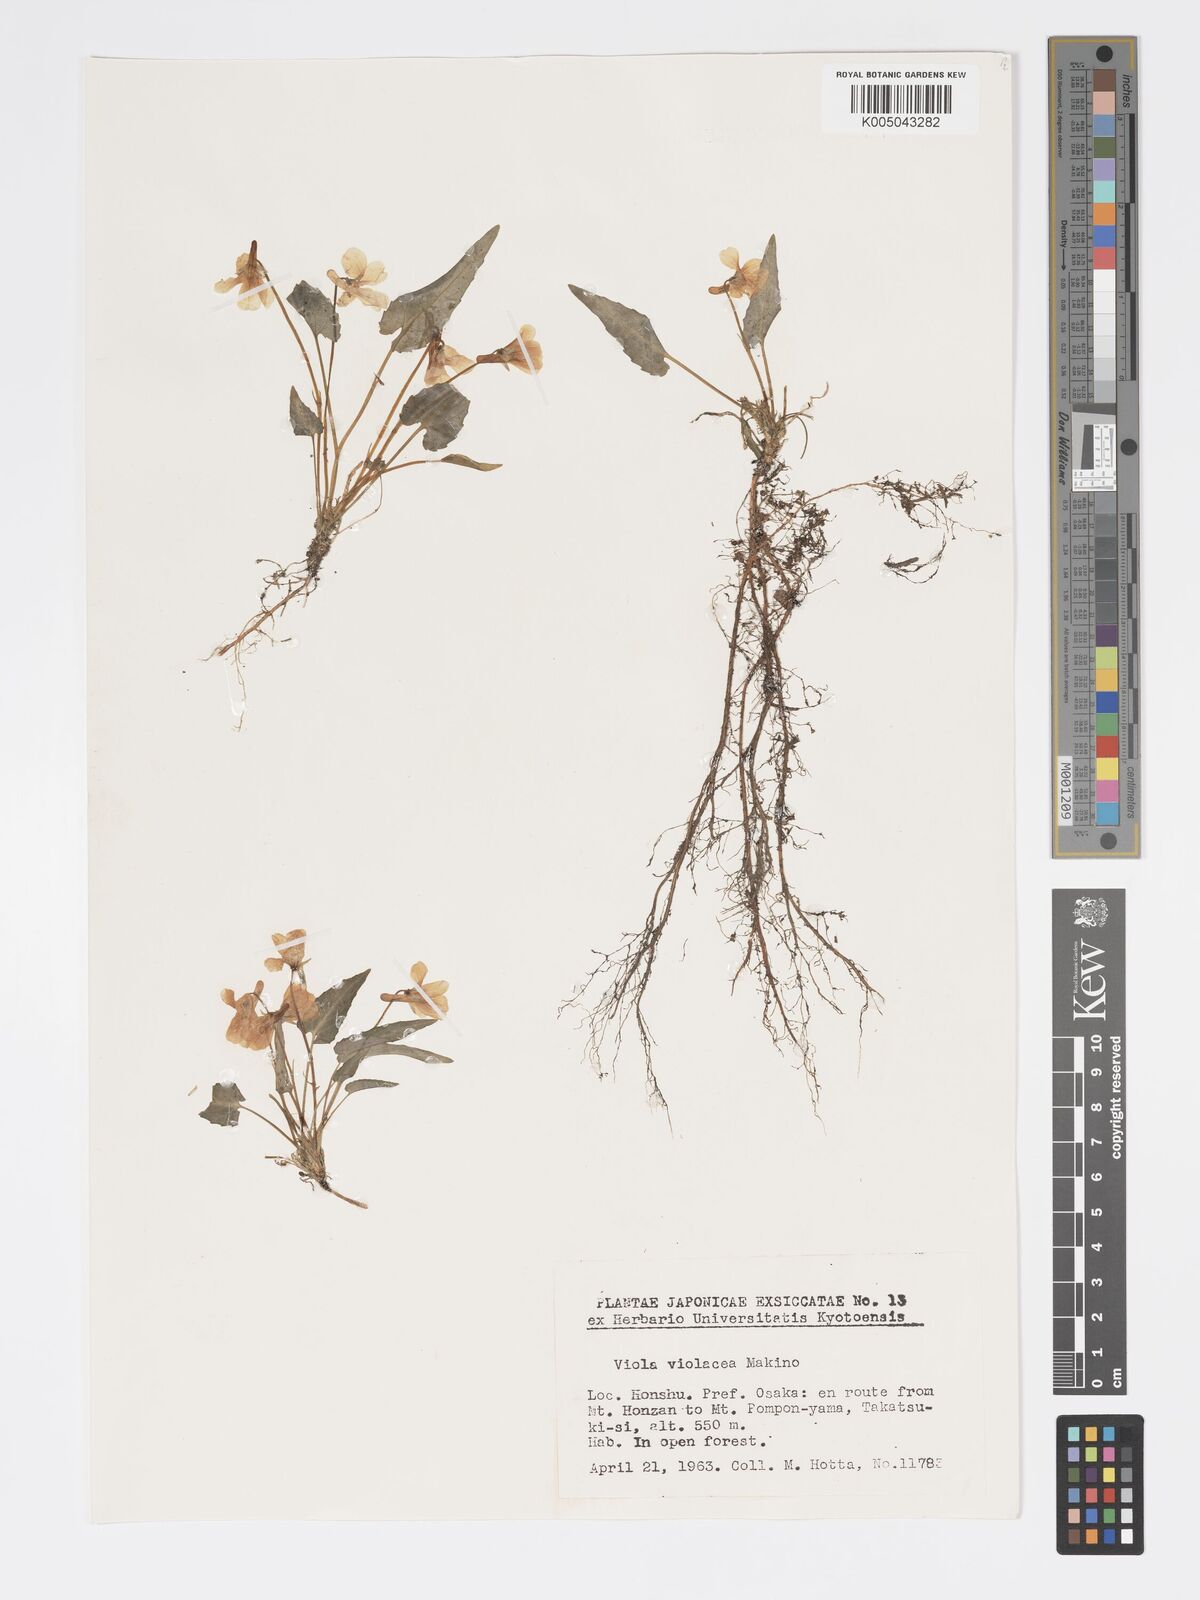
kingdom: Plantae
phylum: Tracheophyta
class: Magnoliopsida
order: Malpighiales
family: Violaceae
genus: Viola
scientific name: Viola violacea
